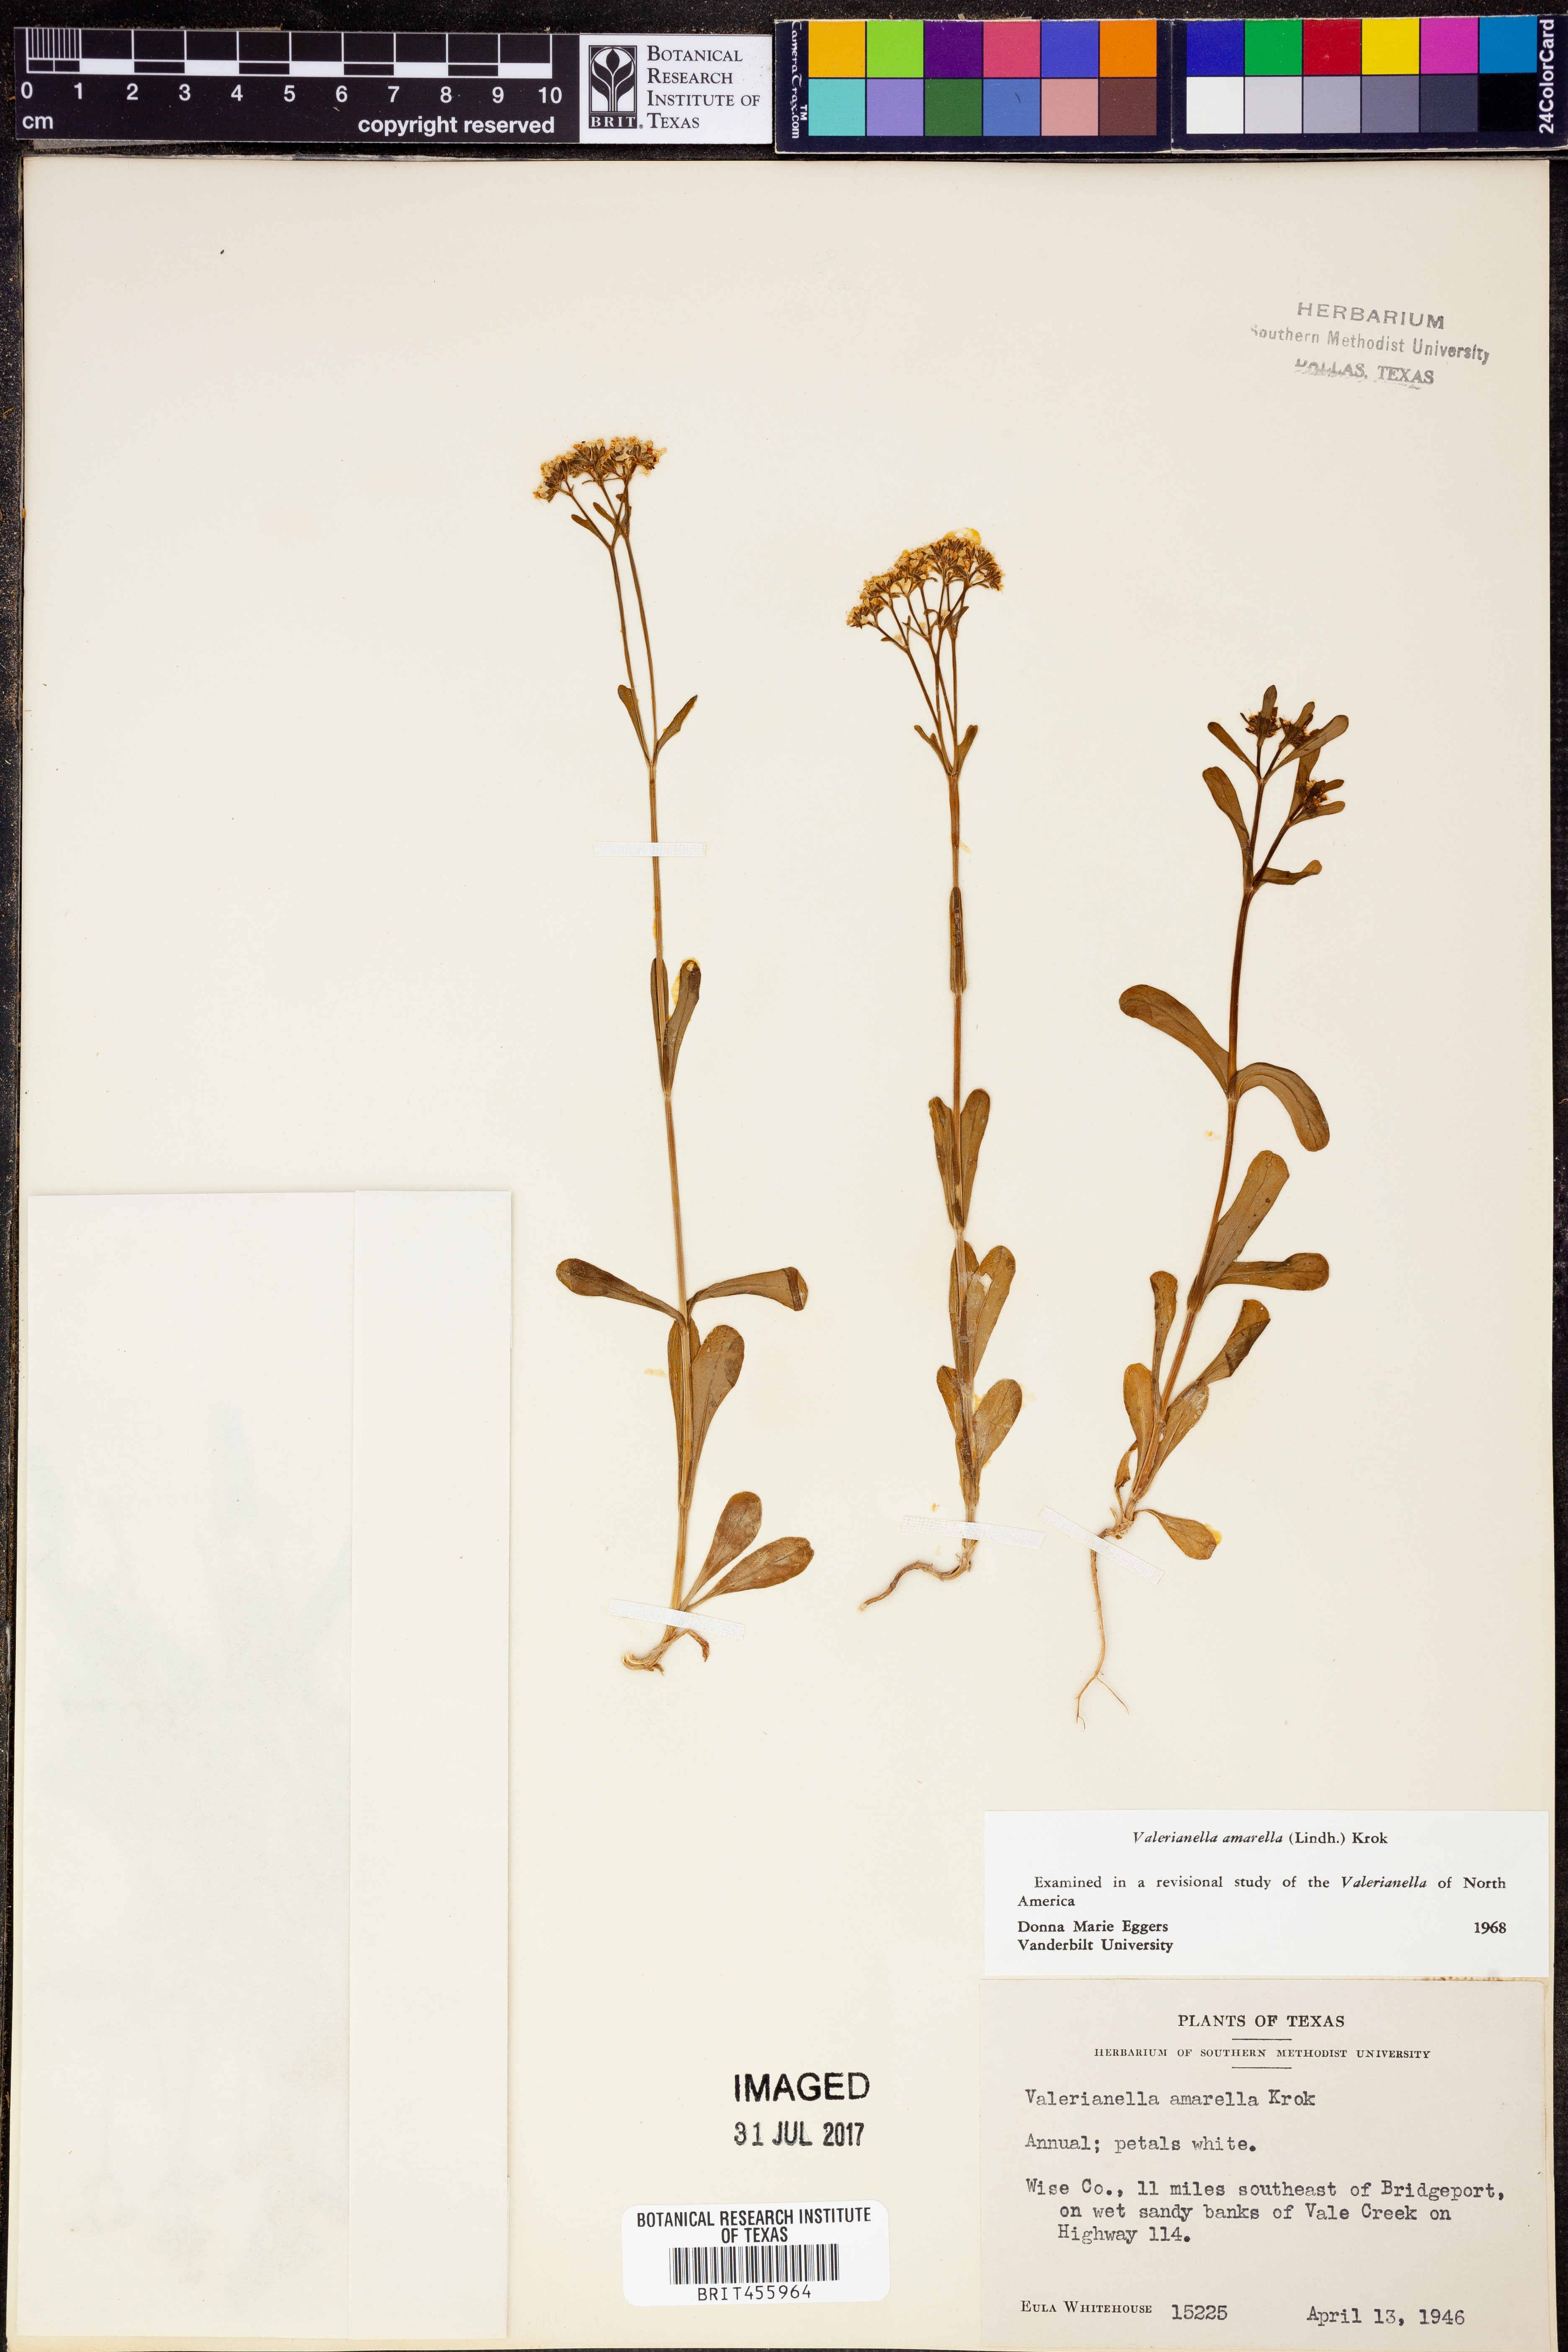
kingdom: Plantae
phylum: Tracheophyta
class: Magnoliopsida
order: Dipsacales
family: Caprifoliaceae
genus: Valerianella
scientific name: Valerianella amarella
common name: Hariy cornsalad
